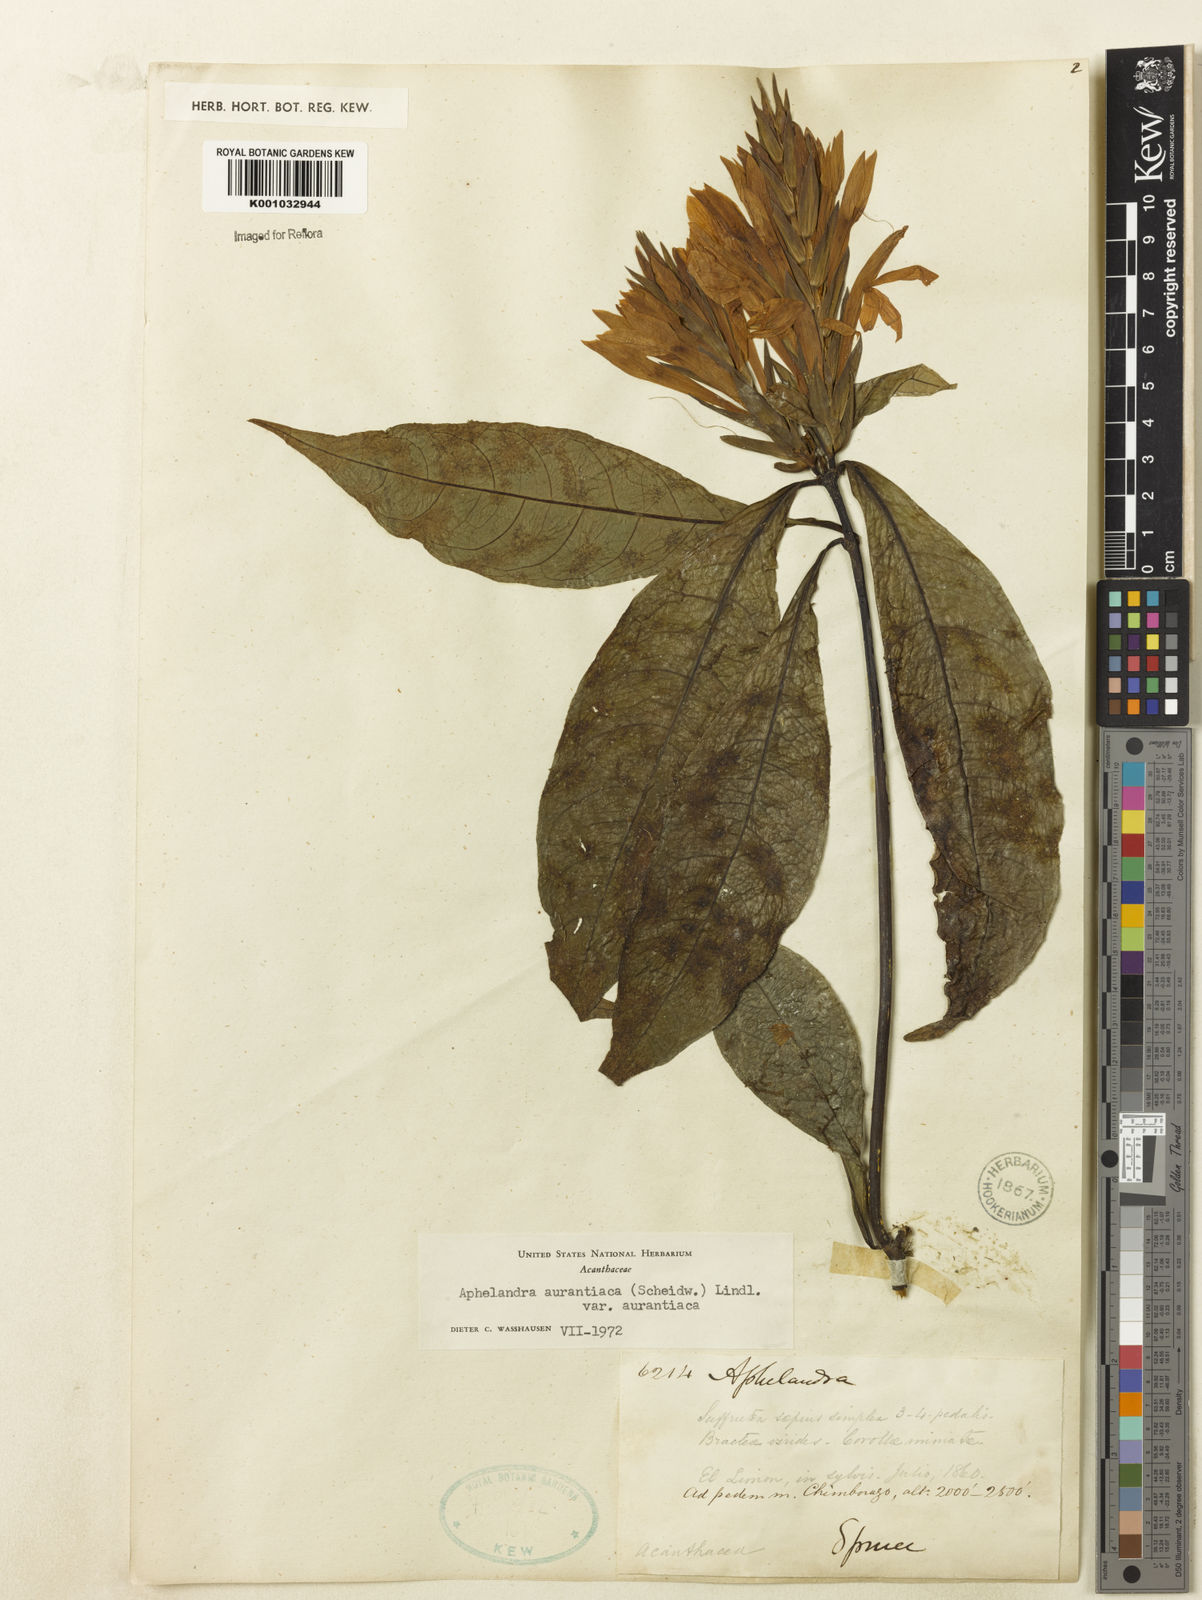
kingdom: Plantae
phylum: Tracheophyta
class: Magnoliopsida
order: Lamiales
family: Acanthaceae
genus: Aphelandra
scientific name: Aphelandra colorata
